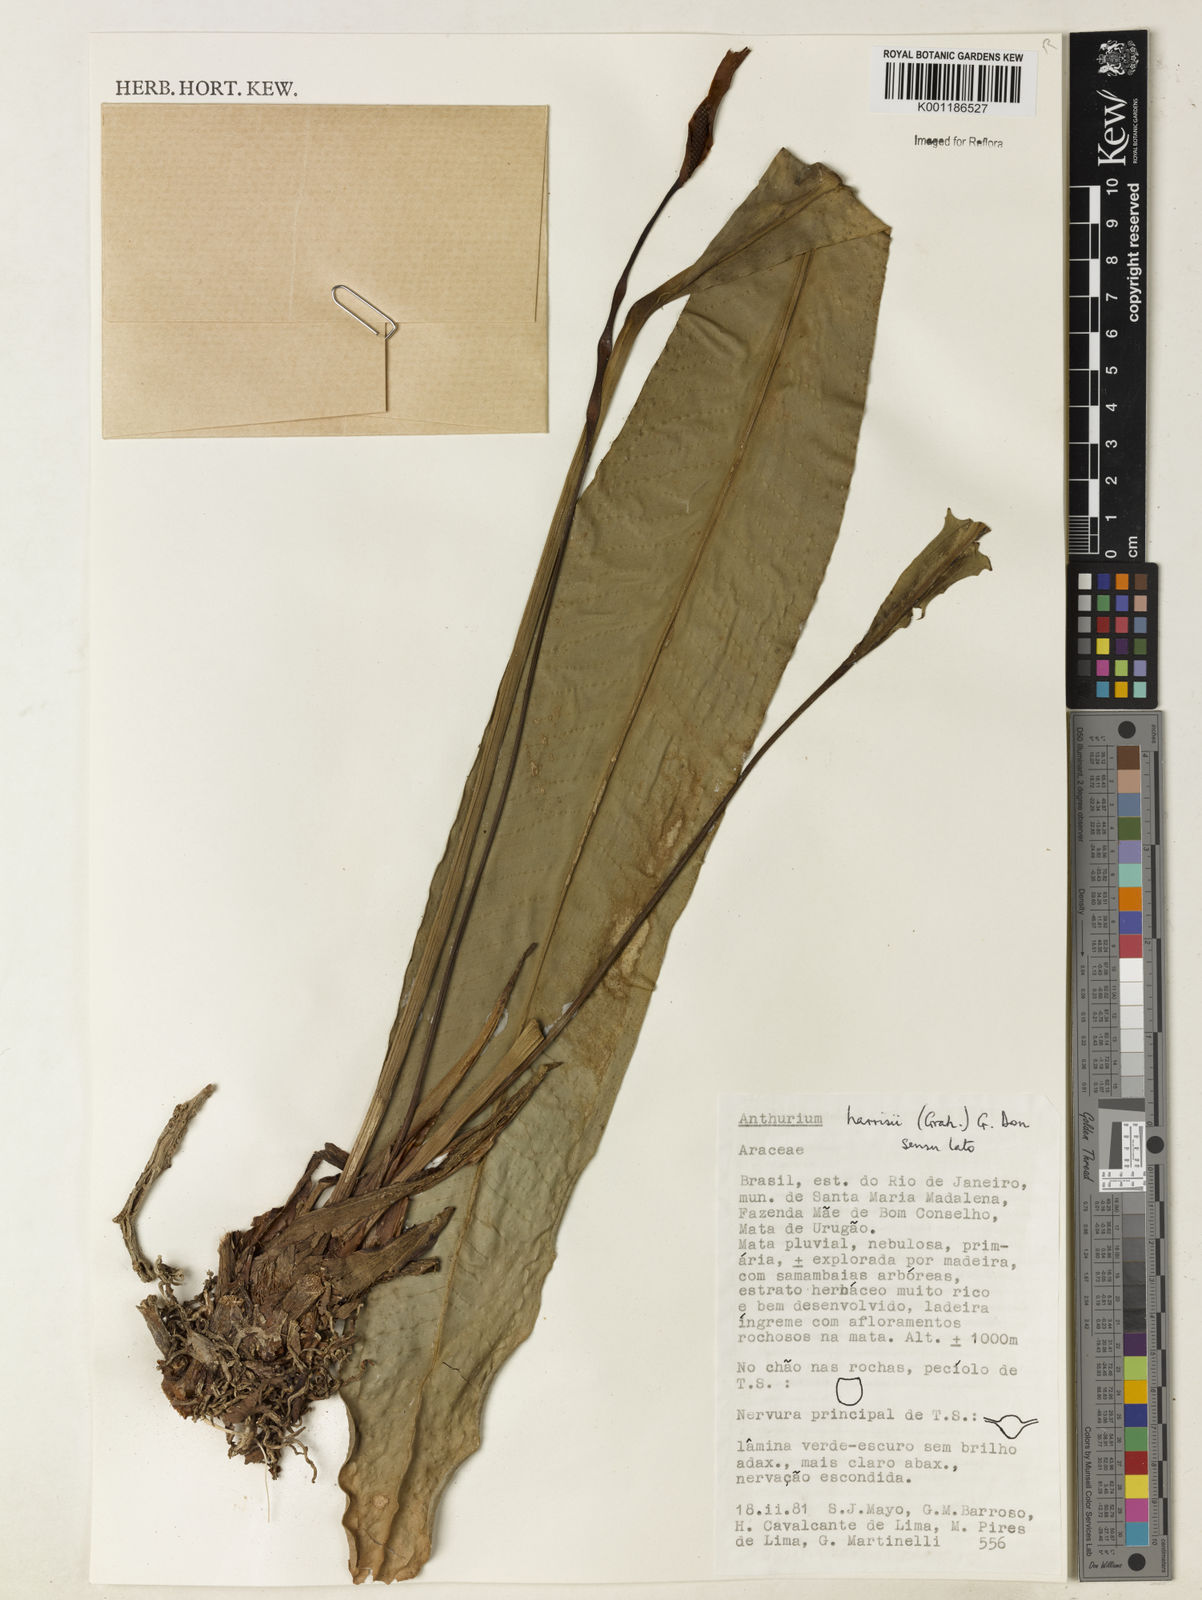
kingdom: Plantae
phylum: Tracheophyta
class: Liliopsida
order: Alismatales
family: Araceae
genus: Anthurium
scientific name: Anthurium harrisii
